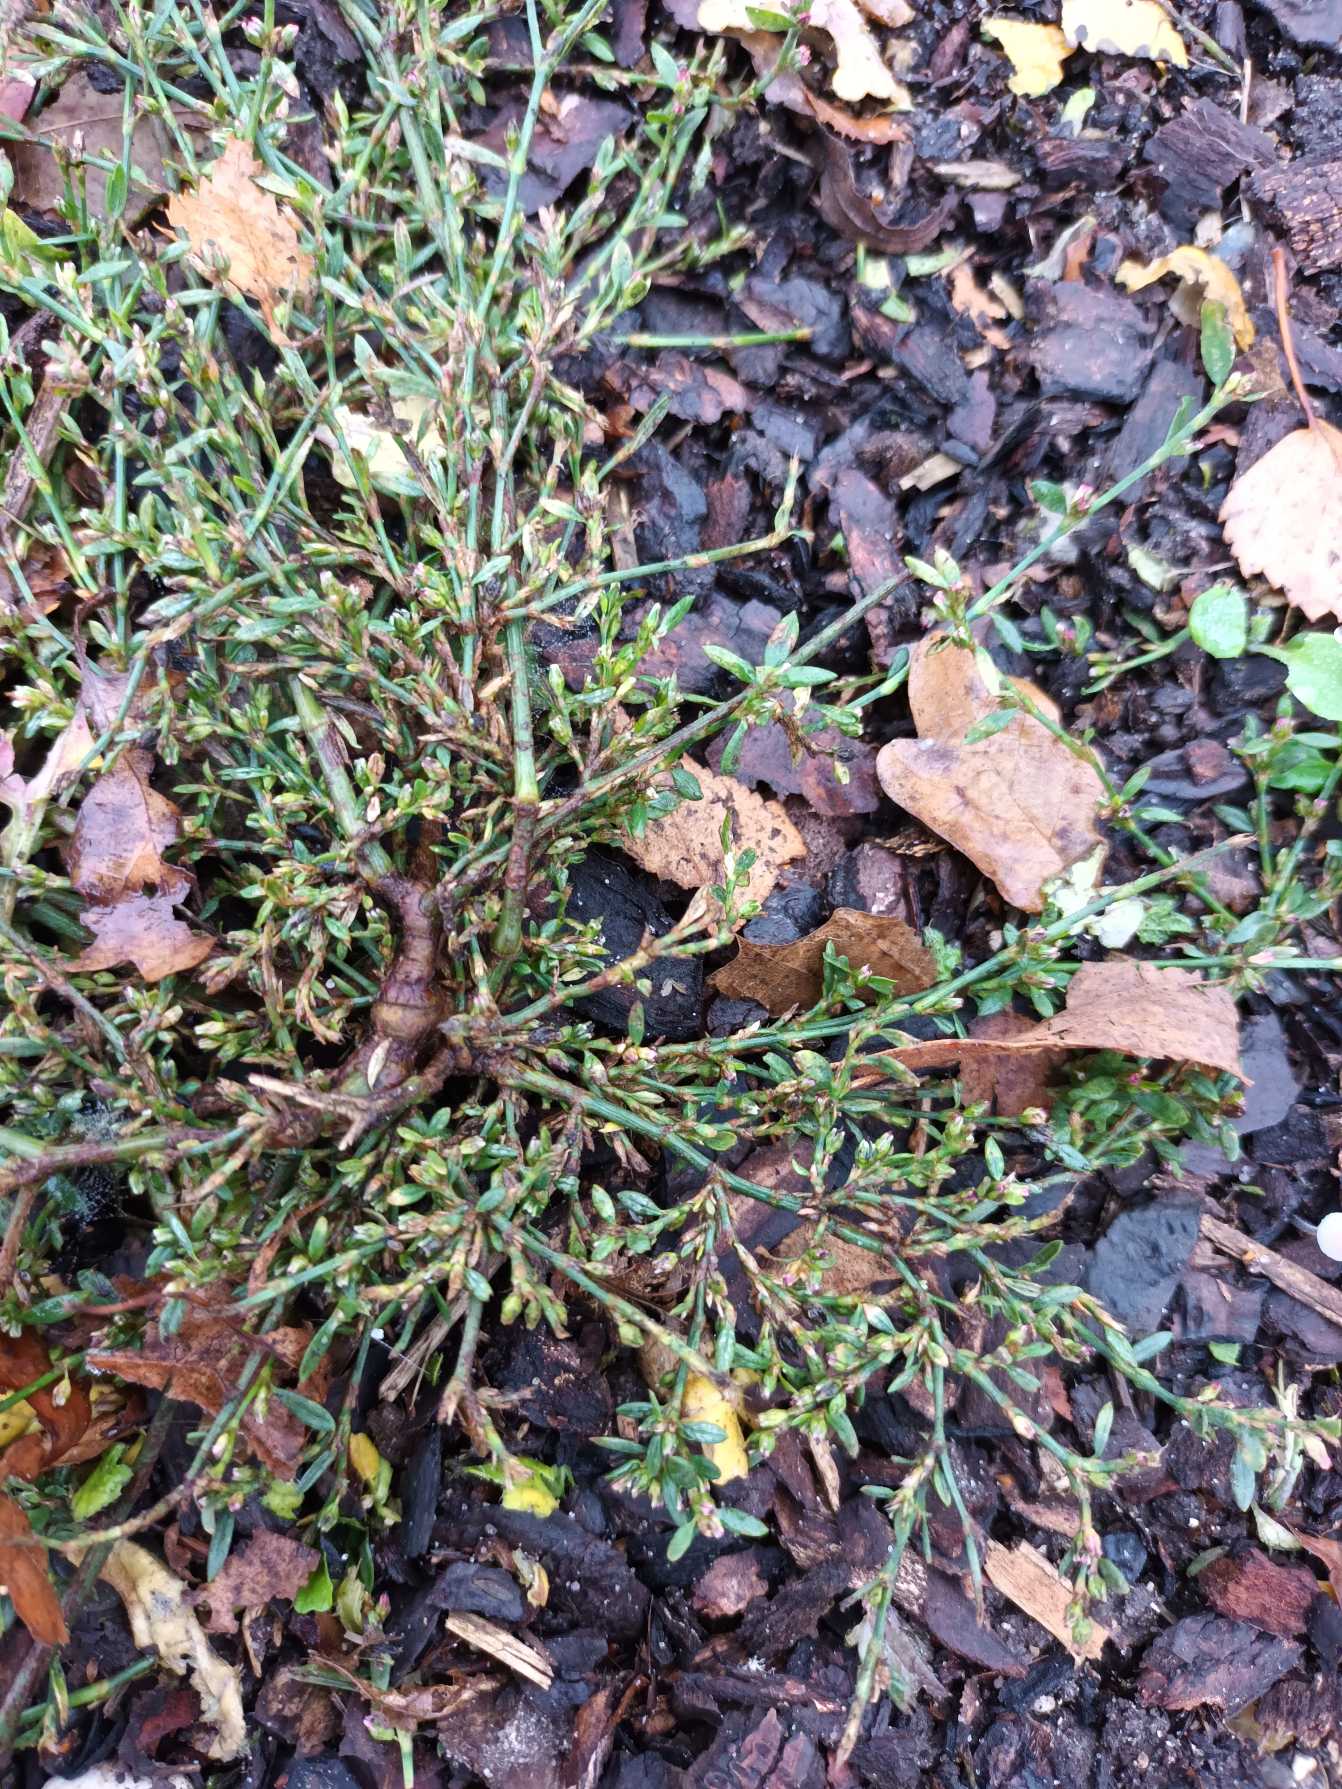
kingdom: Plantae
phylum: Tracheophyta
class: Magnoliopsida
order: Caryophyllales
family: Polygonaceae
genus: Polygonum
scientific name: Polygonum arenastrum
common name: Liggende vej-pileurt
